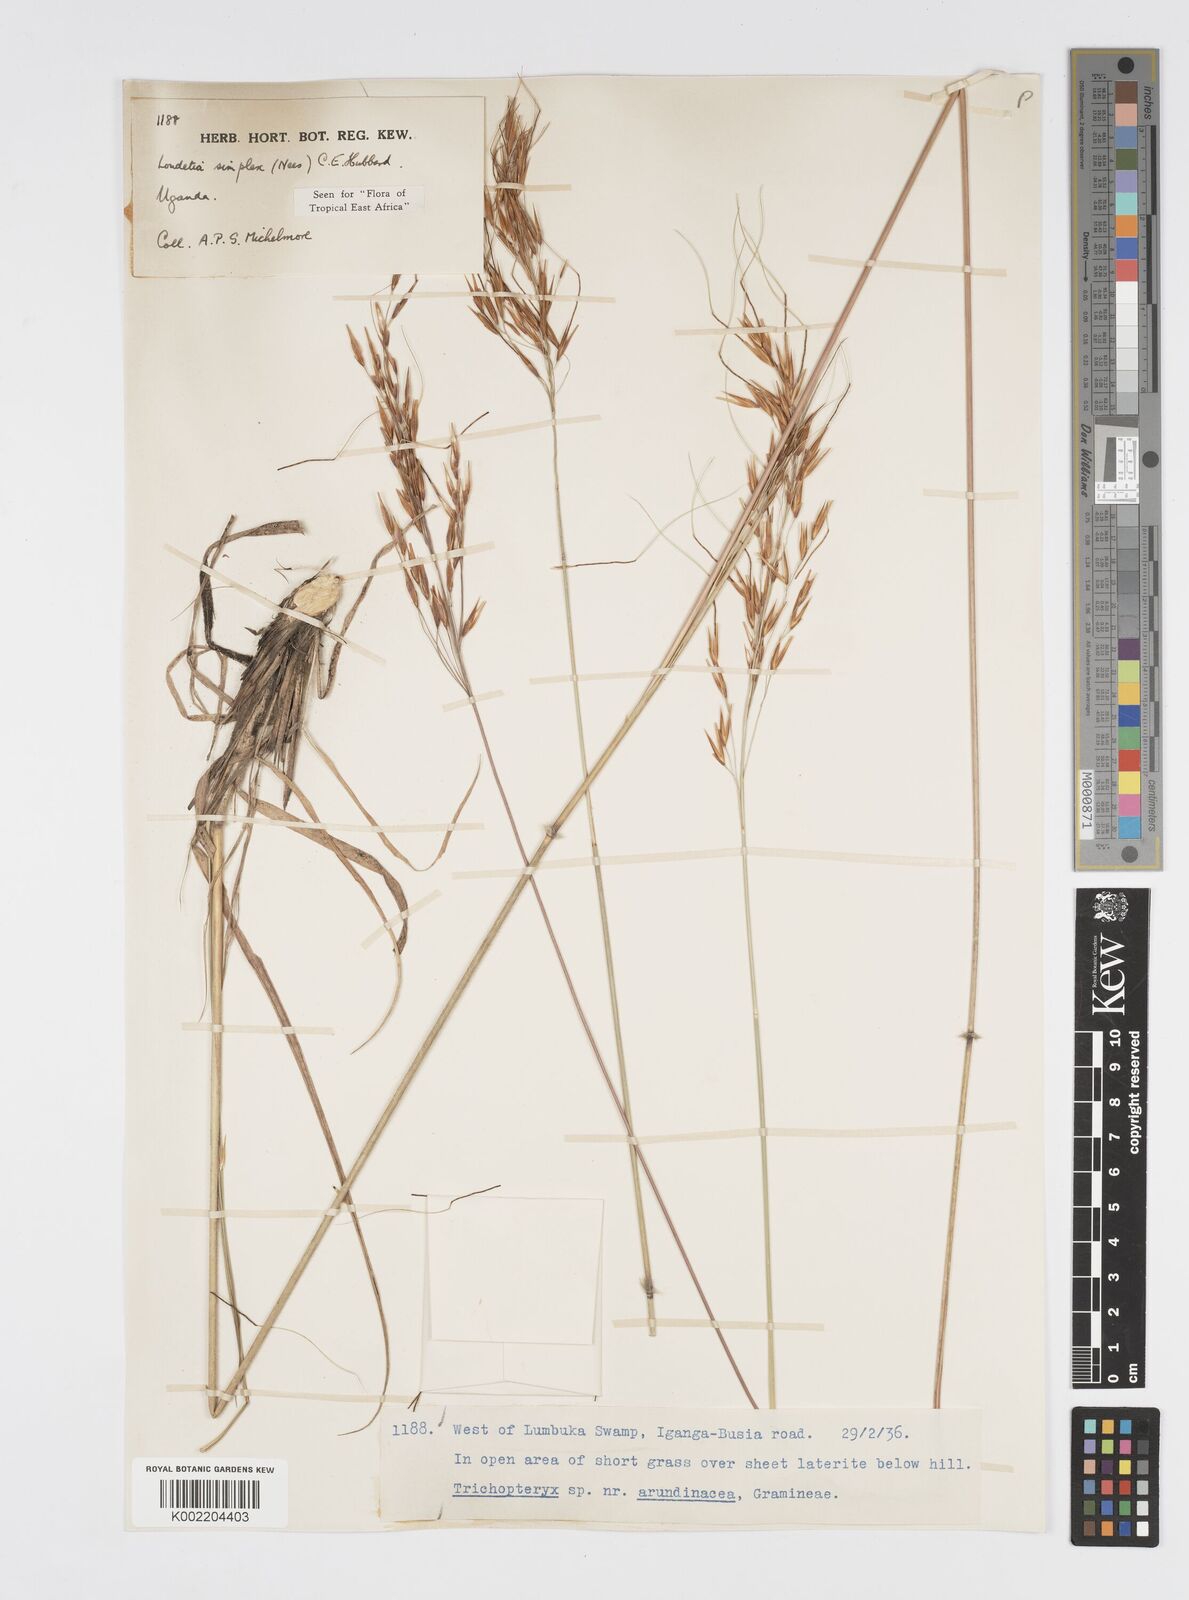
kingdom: Plantae
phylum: Tracheophyta
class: Liliopsida
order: Poales
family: Poaceae
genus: Loudetia
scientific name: Loudetia simplex
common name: Common russet grass
